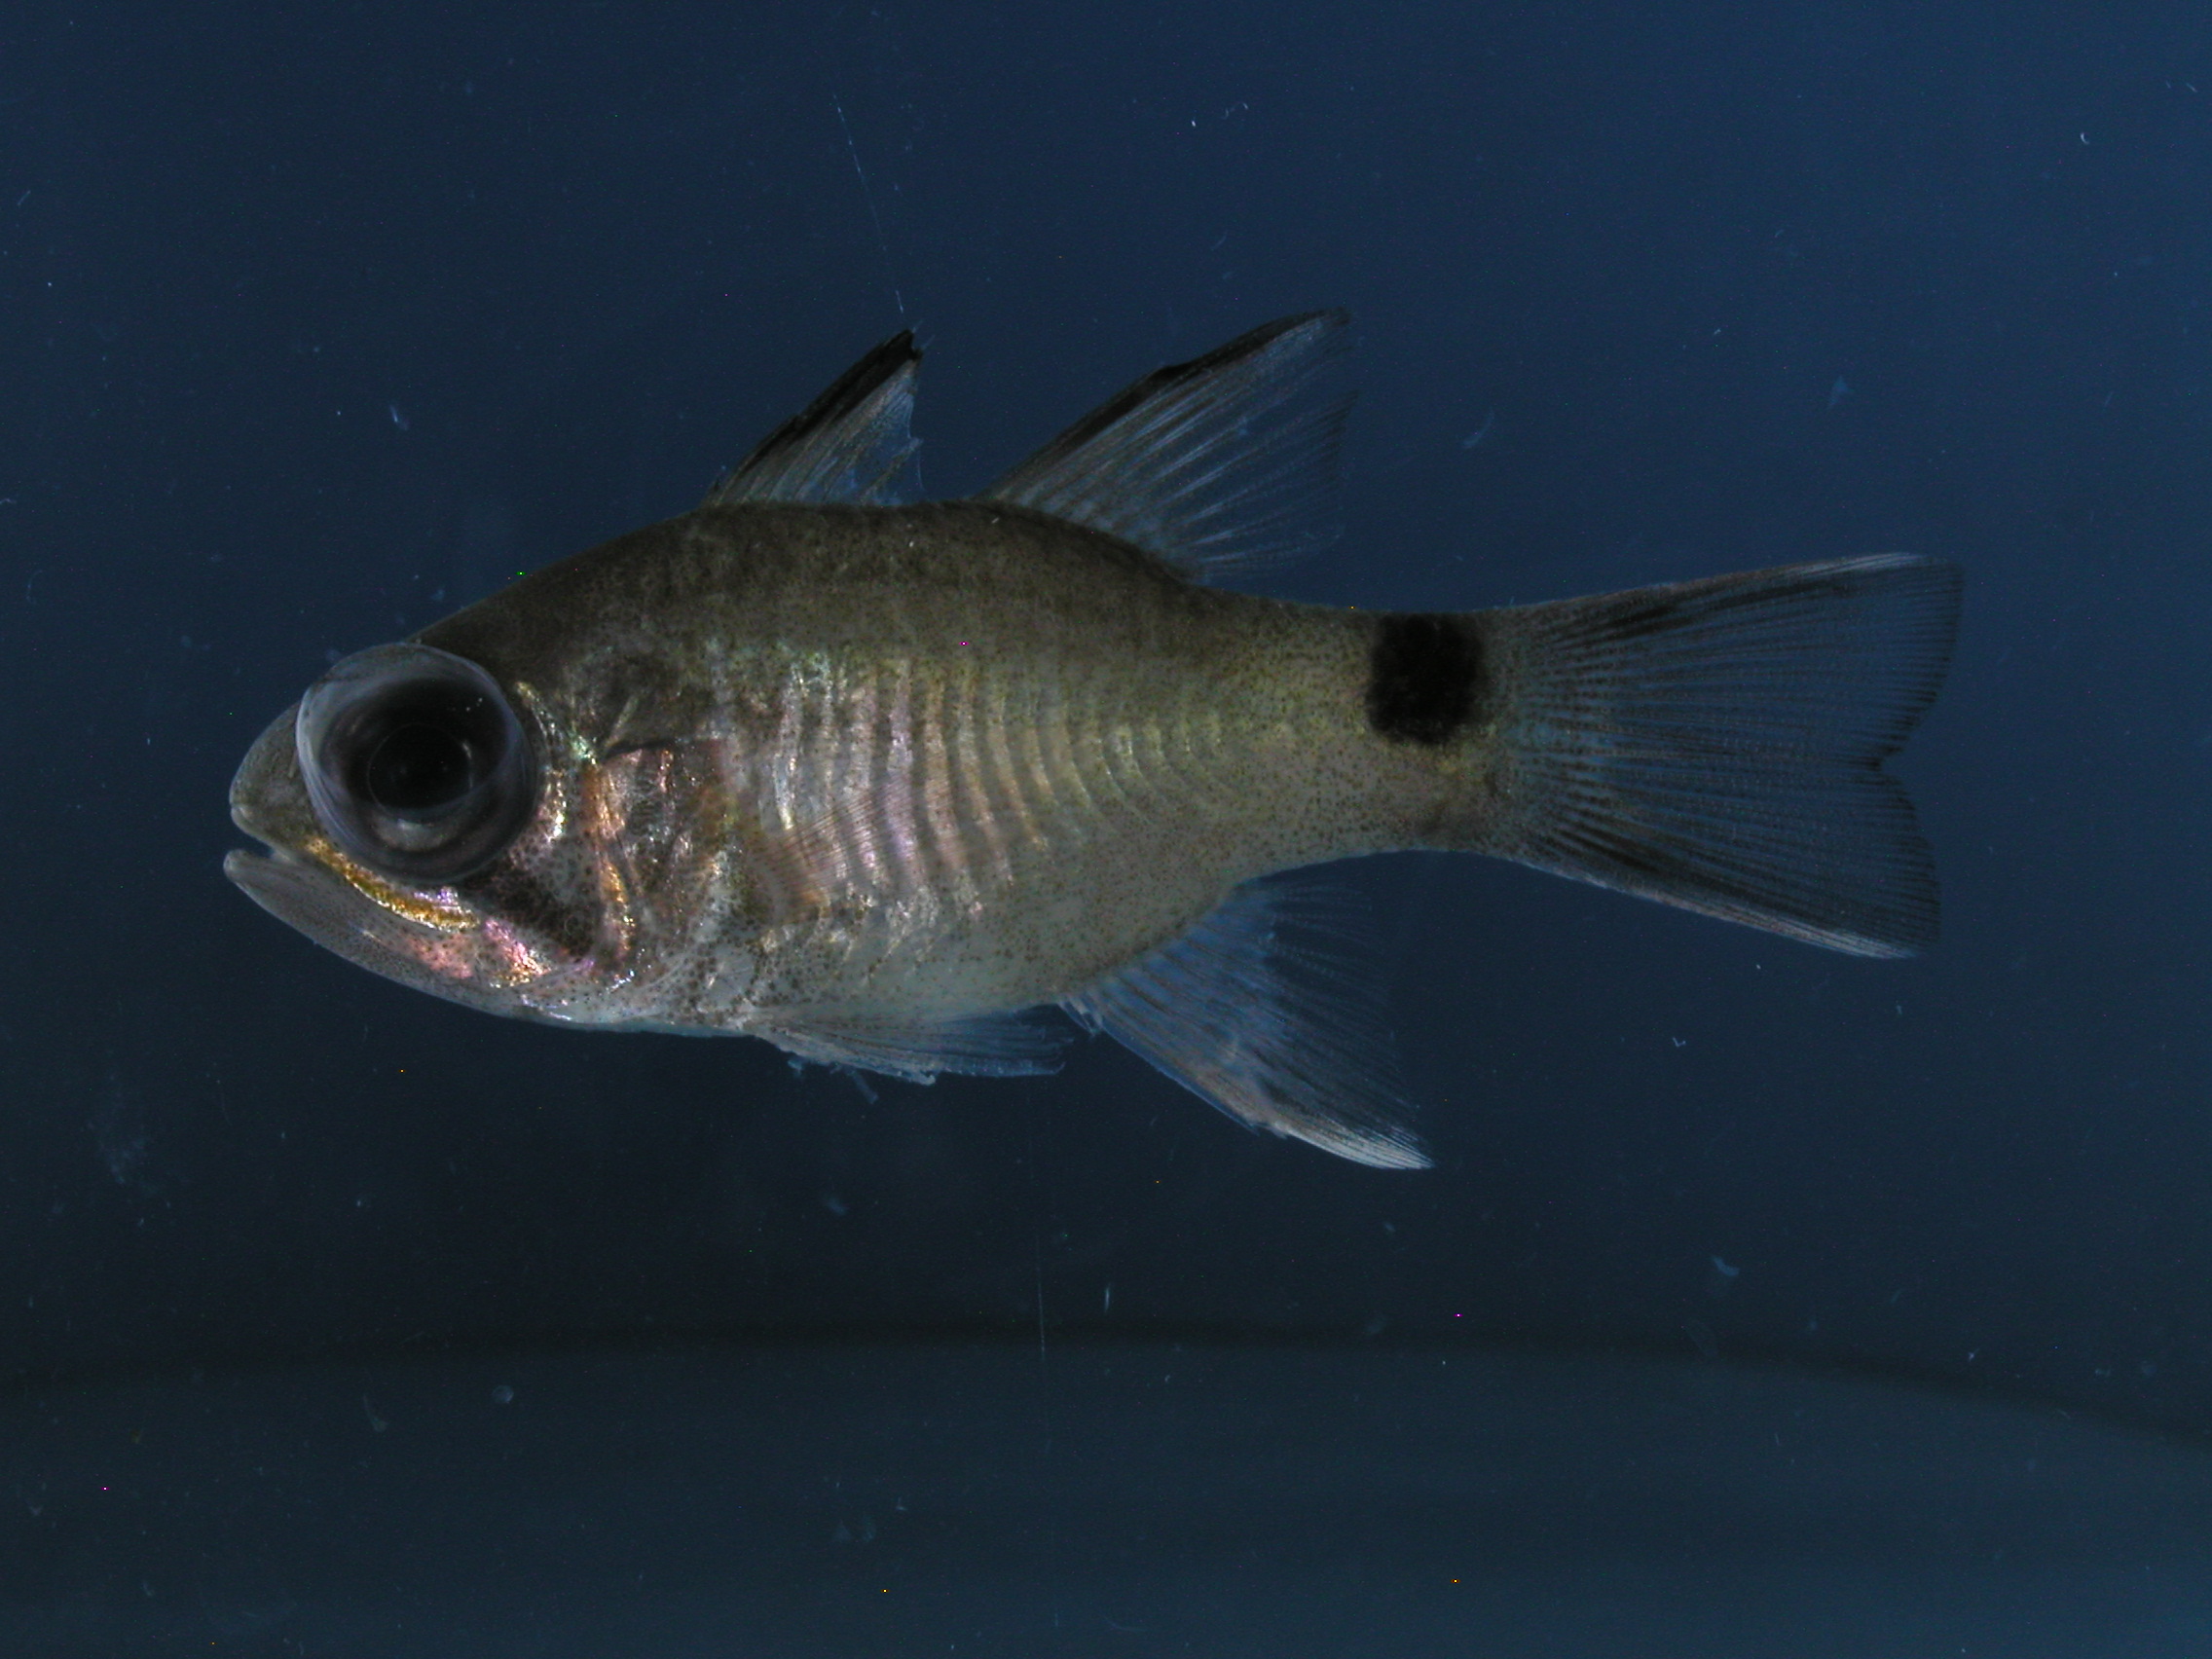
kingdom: Animalia
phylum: Chordata
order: Perciformes
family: Apogonidae
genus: Nectamia
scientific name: Nectamia zebrinus
